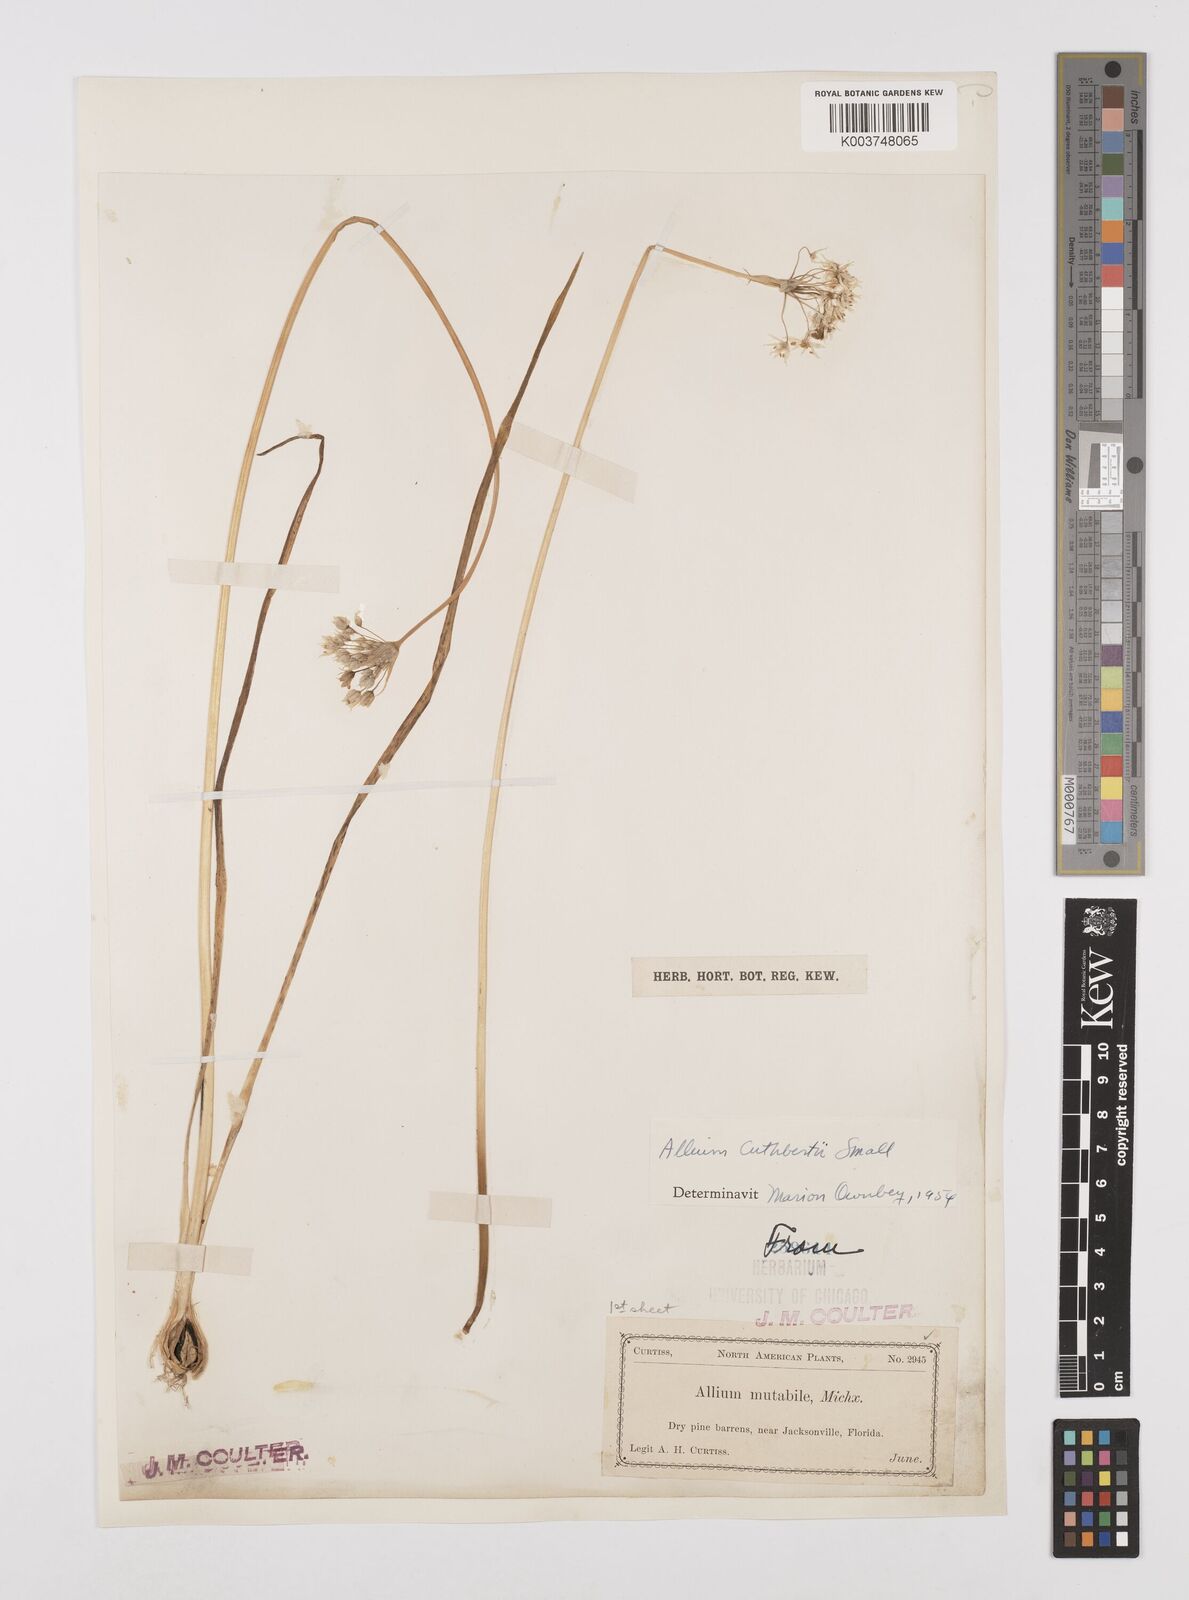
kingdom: Plantae
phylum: Tracheophyta
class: Liliopsida
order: Asparagales
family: Amaryllidaceae
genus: Allium
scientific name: Allium cuthbertii
